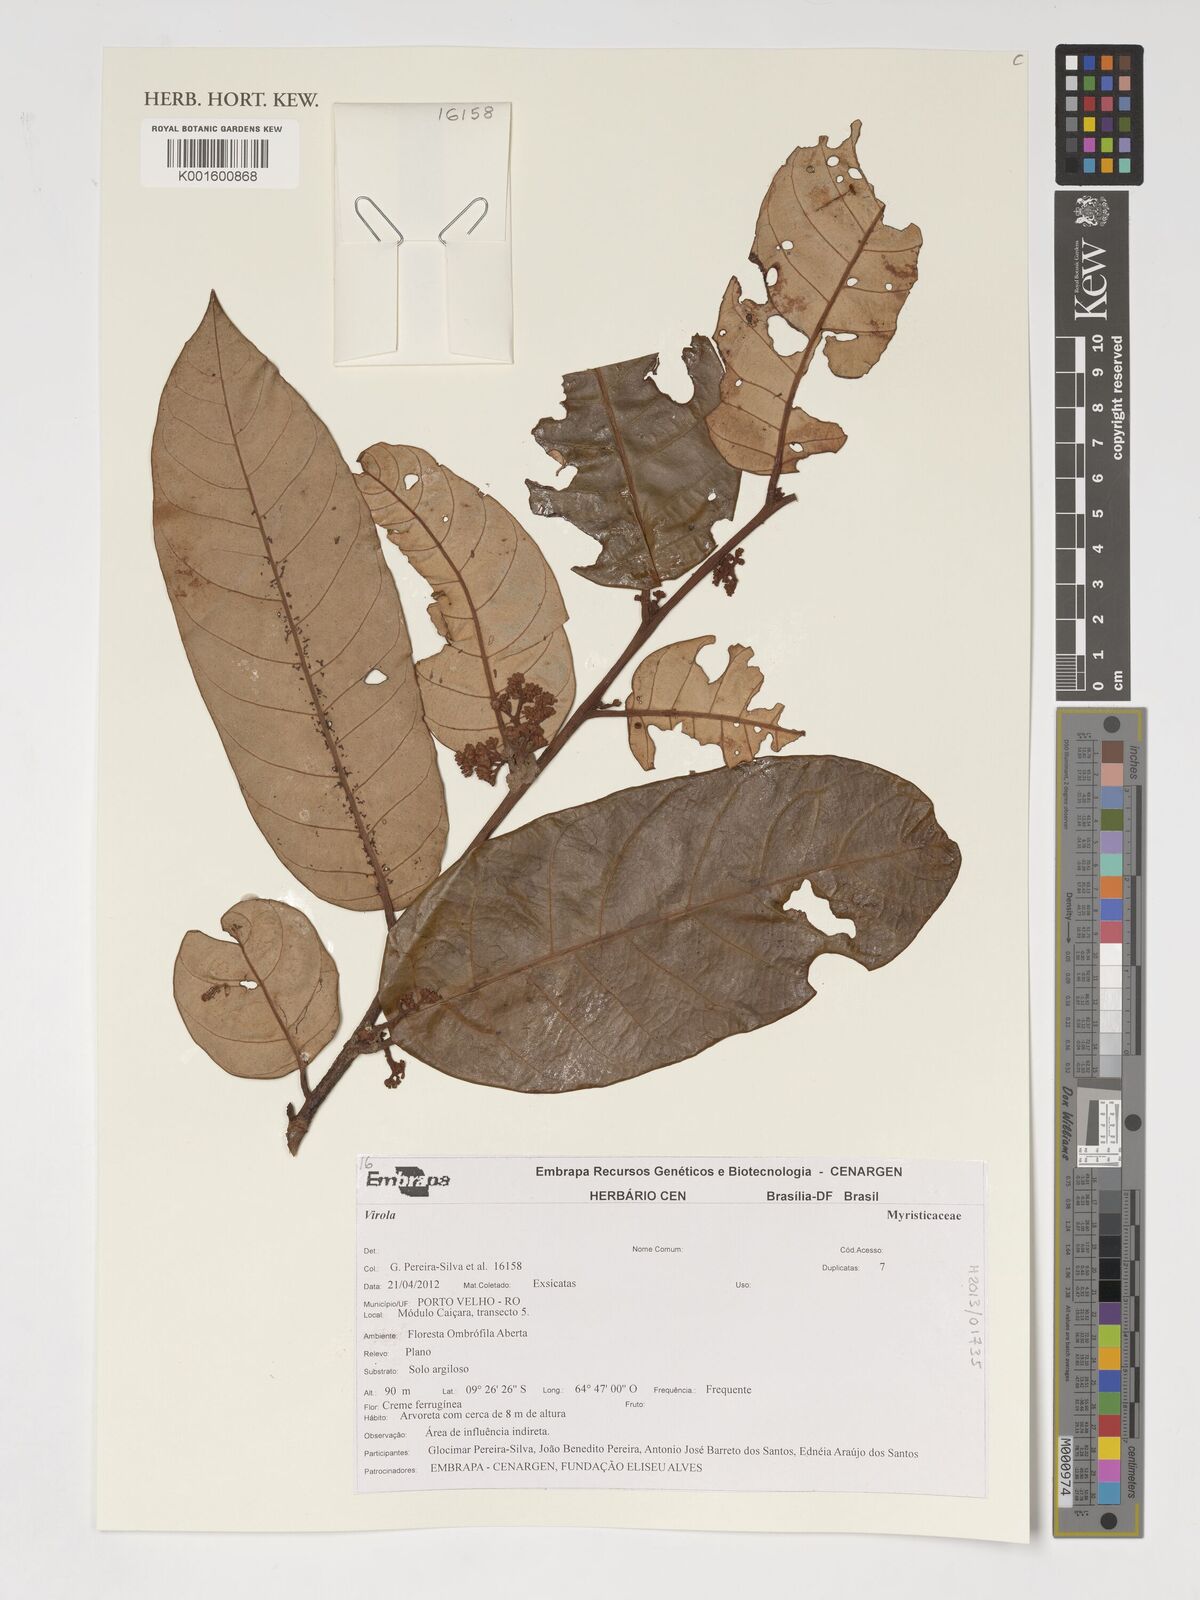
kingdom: Plantae
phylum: Tracheophyta
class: Magnoliopsida
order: Magnoliales
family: Myristicaceae
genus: Virola
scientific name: Virola
